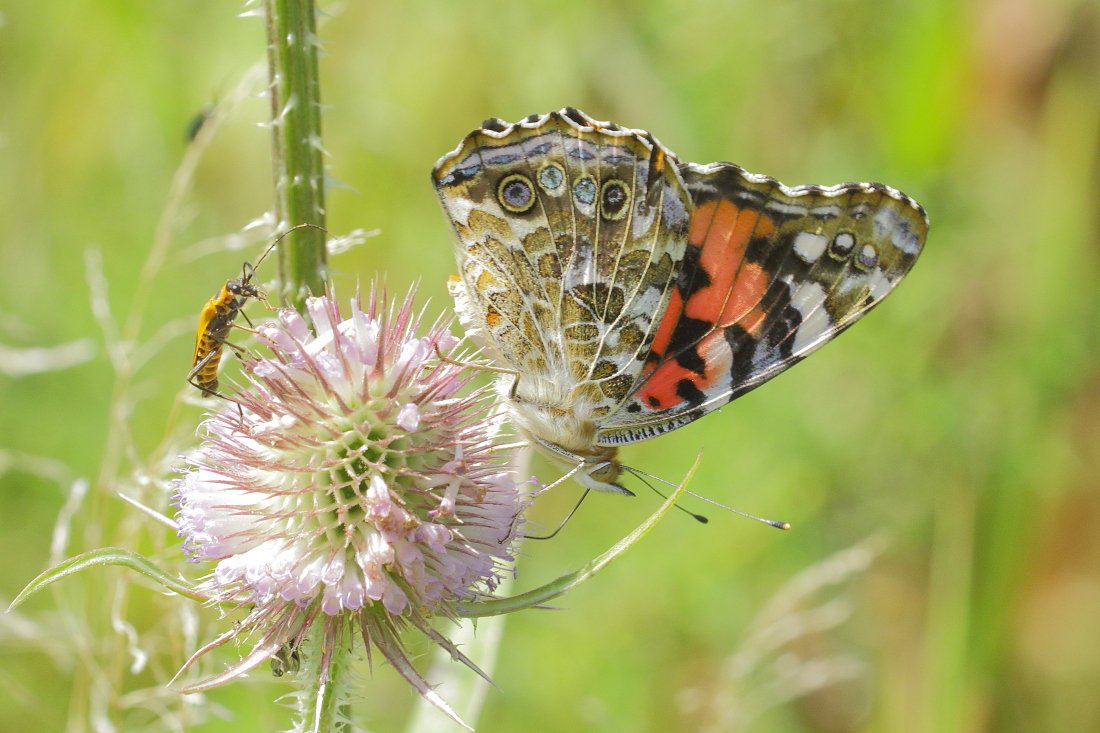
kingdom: Animalia
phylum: Arthropoda
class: Insecta
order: Lepidoptera
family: Nymphalidae
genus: Vanessa
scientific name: Vanessa cardui
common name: Painted Lady
